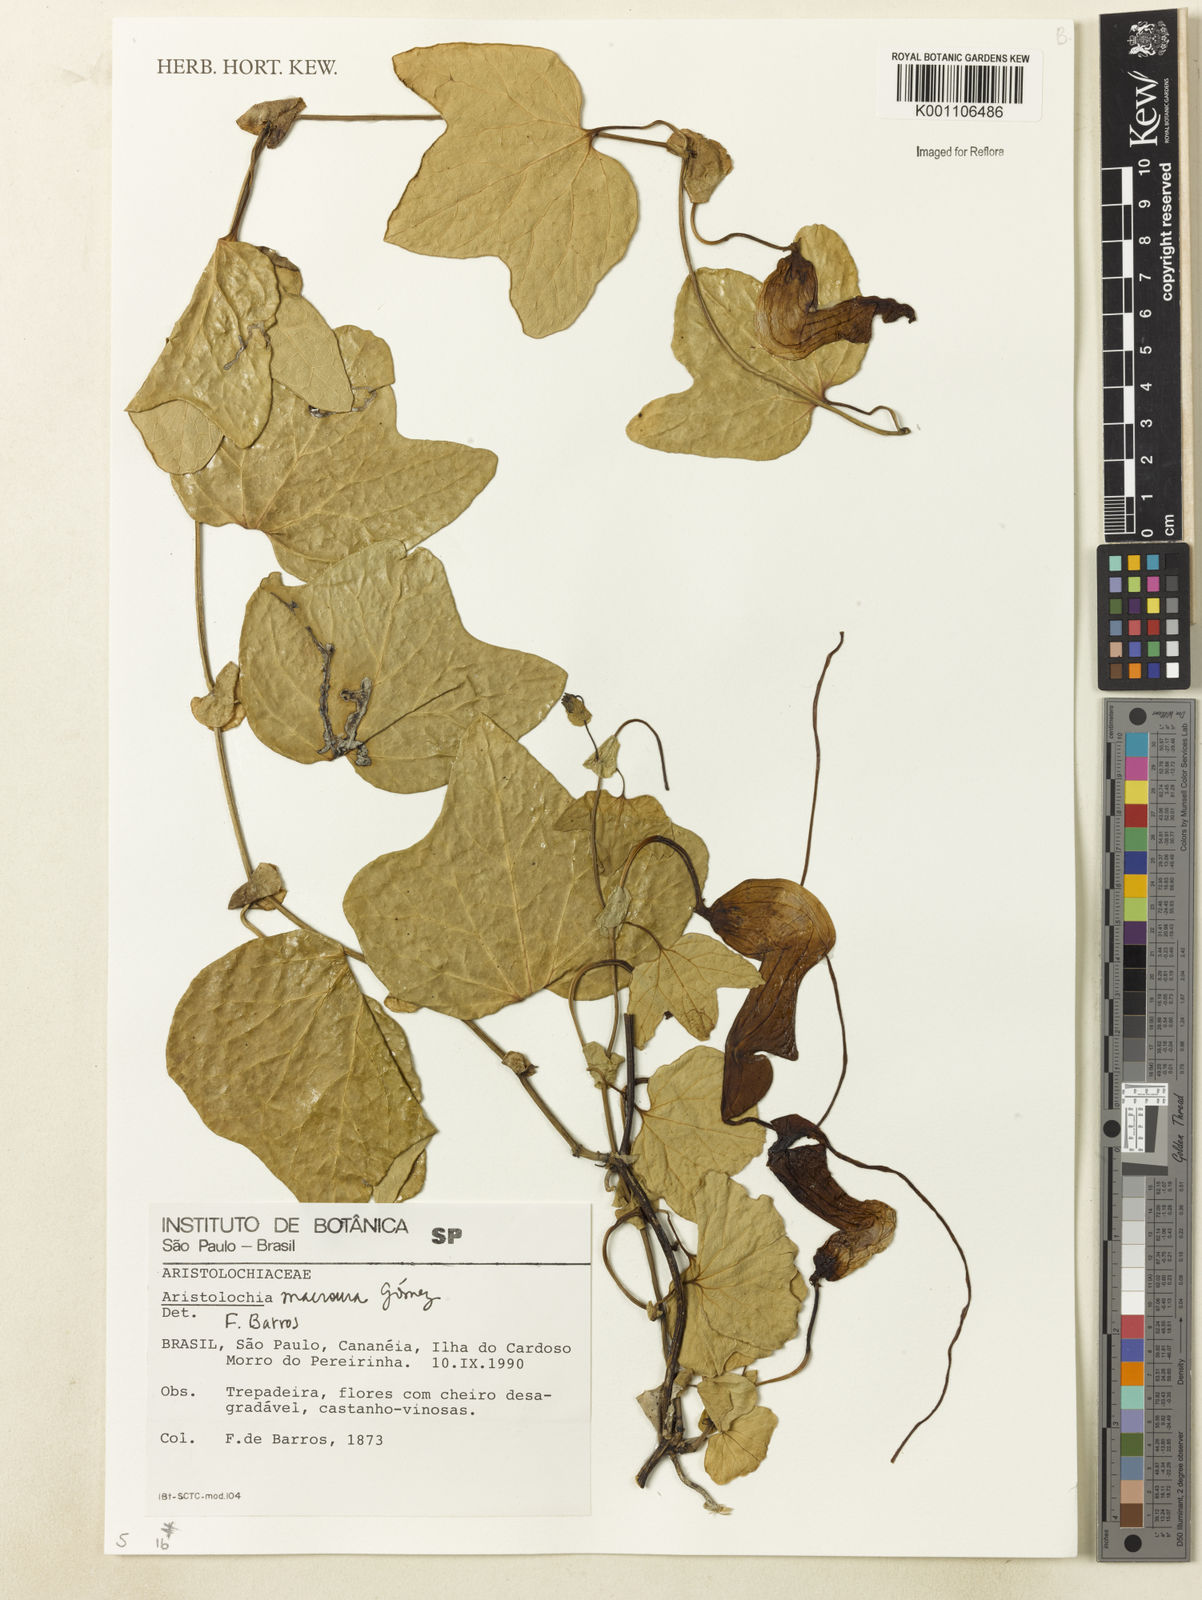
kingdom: Plantae
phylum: Tracheophyta
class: Magnoliopsida
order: Piperales
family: Aristolochiaceae
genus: Aristolochia
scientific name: Aristolochia macroura
